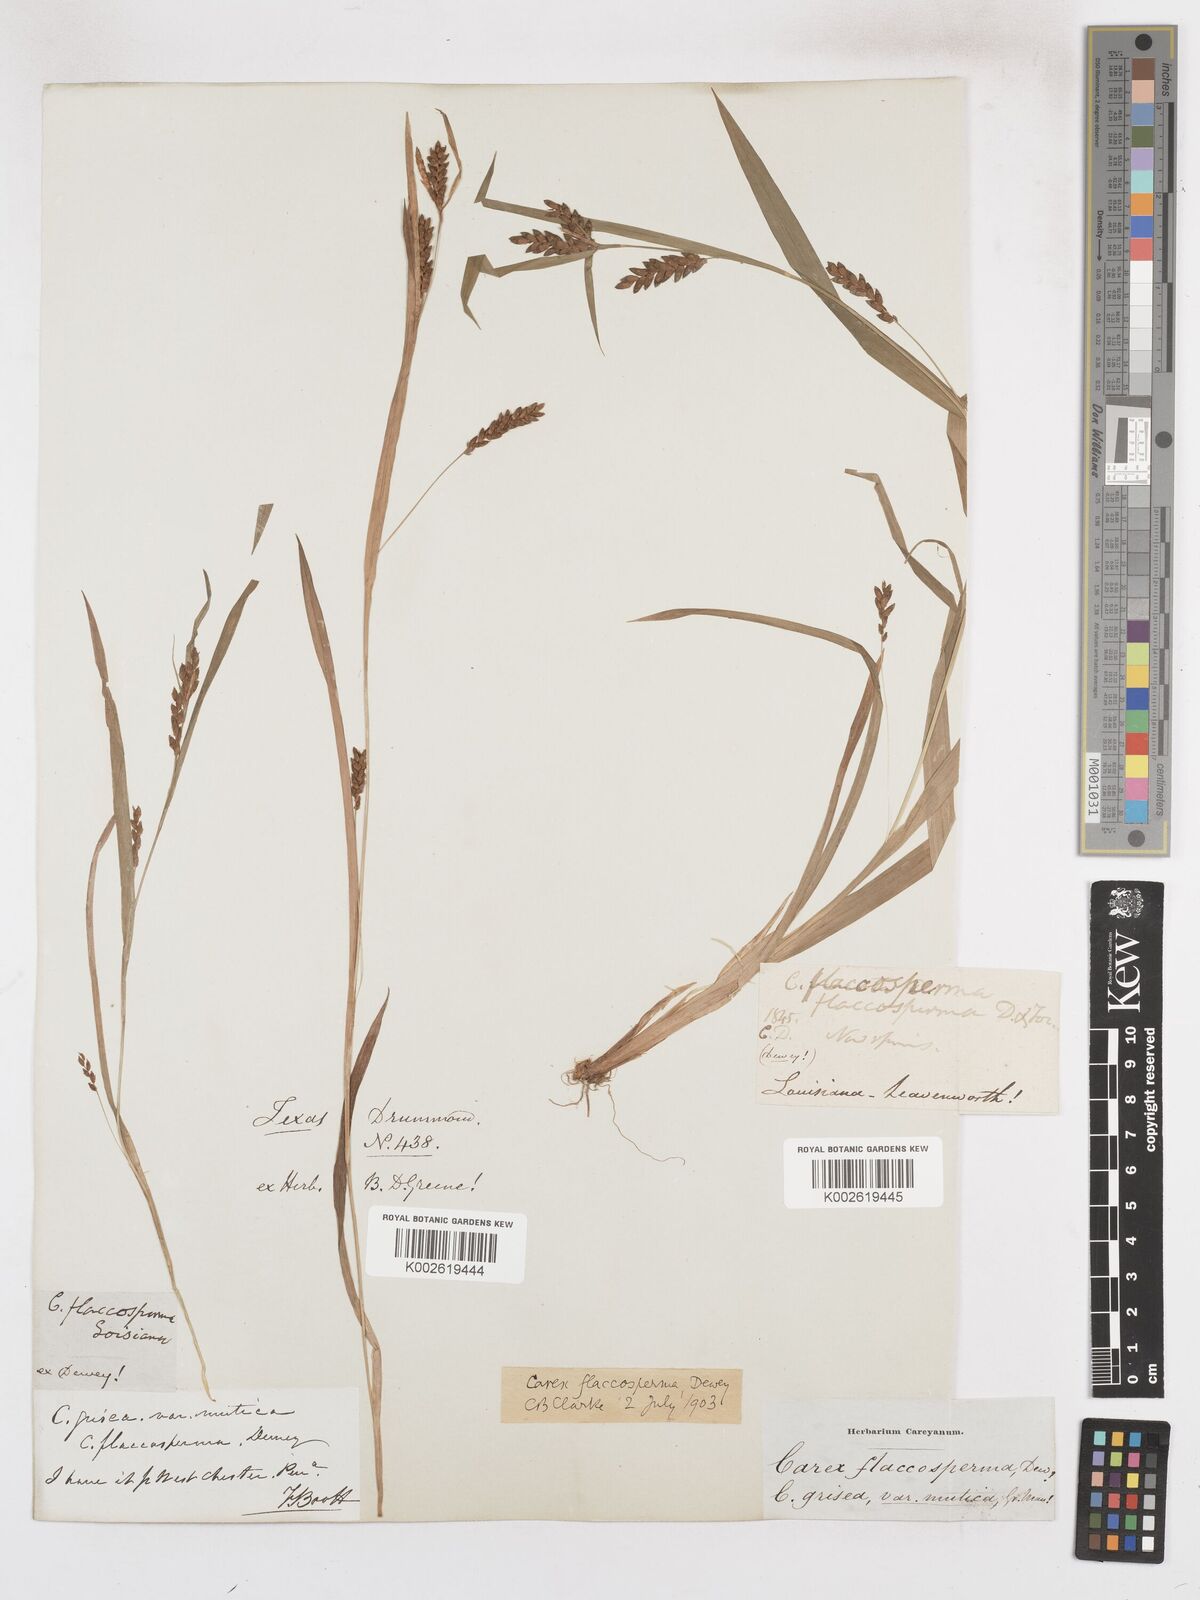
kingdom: Plantae
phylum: Tracheophyta
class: Liliopsida
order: Poales
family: Cyperaceae
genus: Carex
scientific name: Carex flaccosperma
